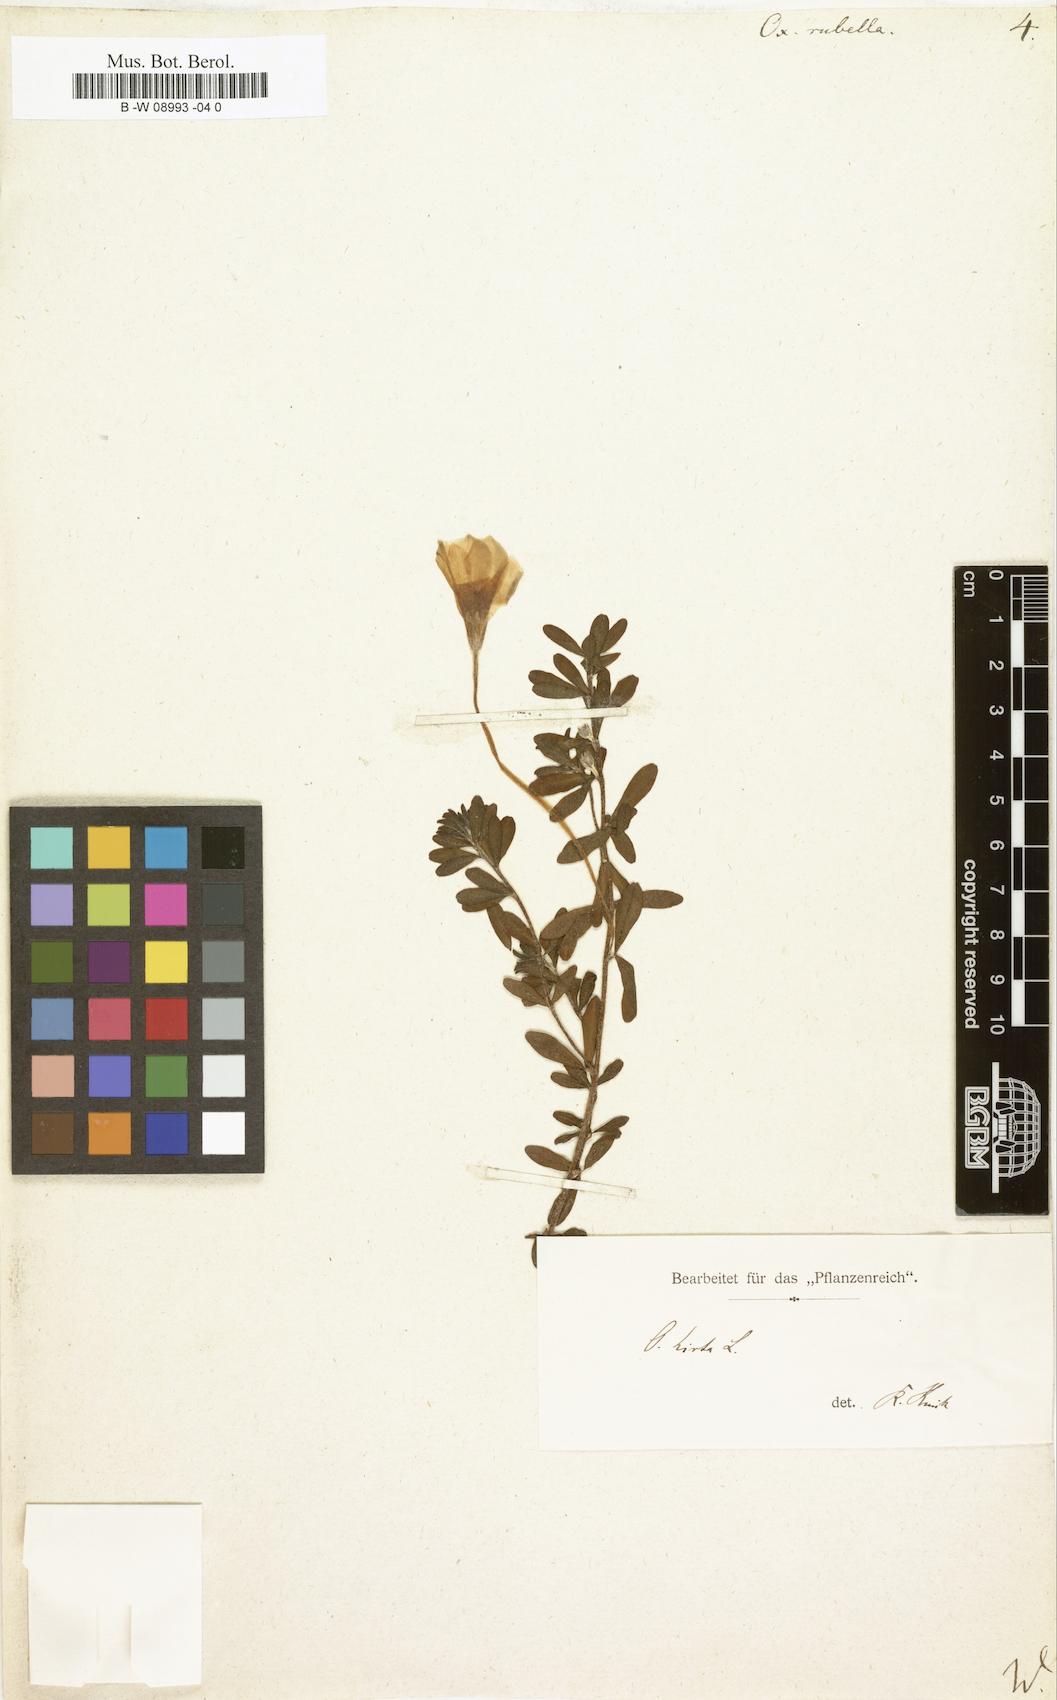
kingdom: Plantae
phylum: Tracheophyta
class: Magnoliopsida
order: Oxalidales
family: Oxalidaceae
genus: Oxalis
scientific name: Oxalis hirta
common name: Tropical woodsorrel
